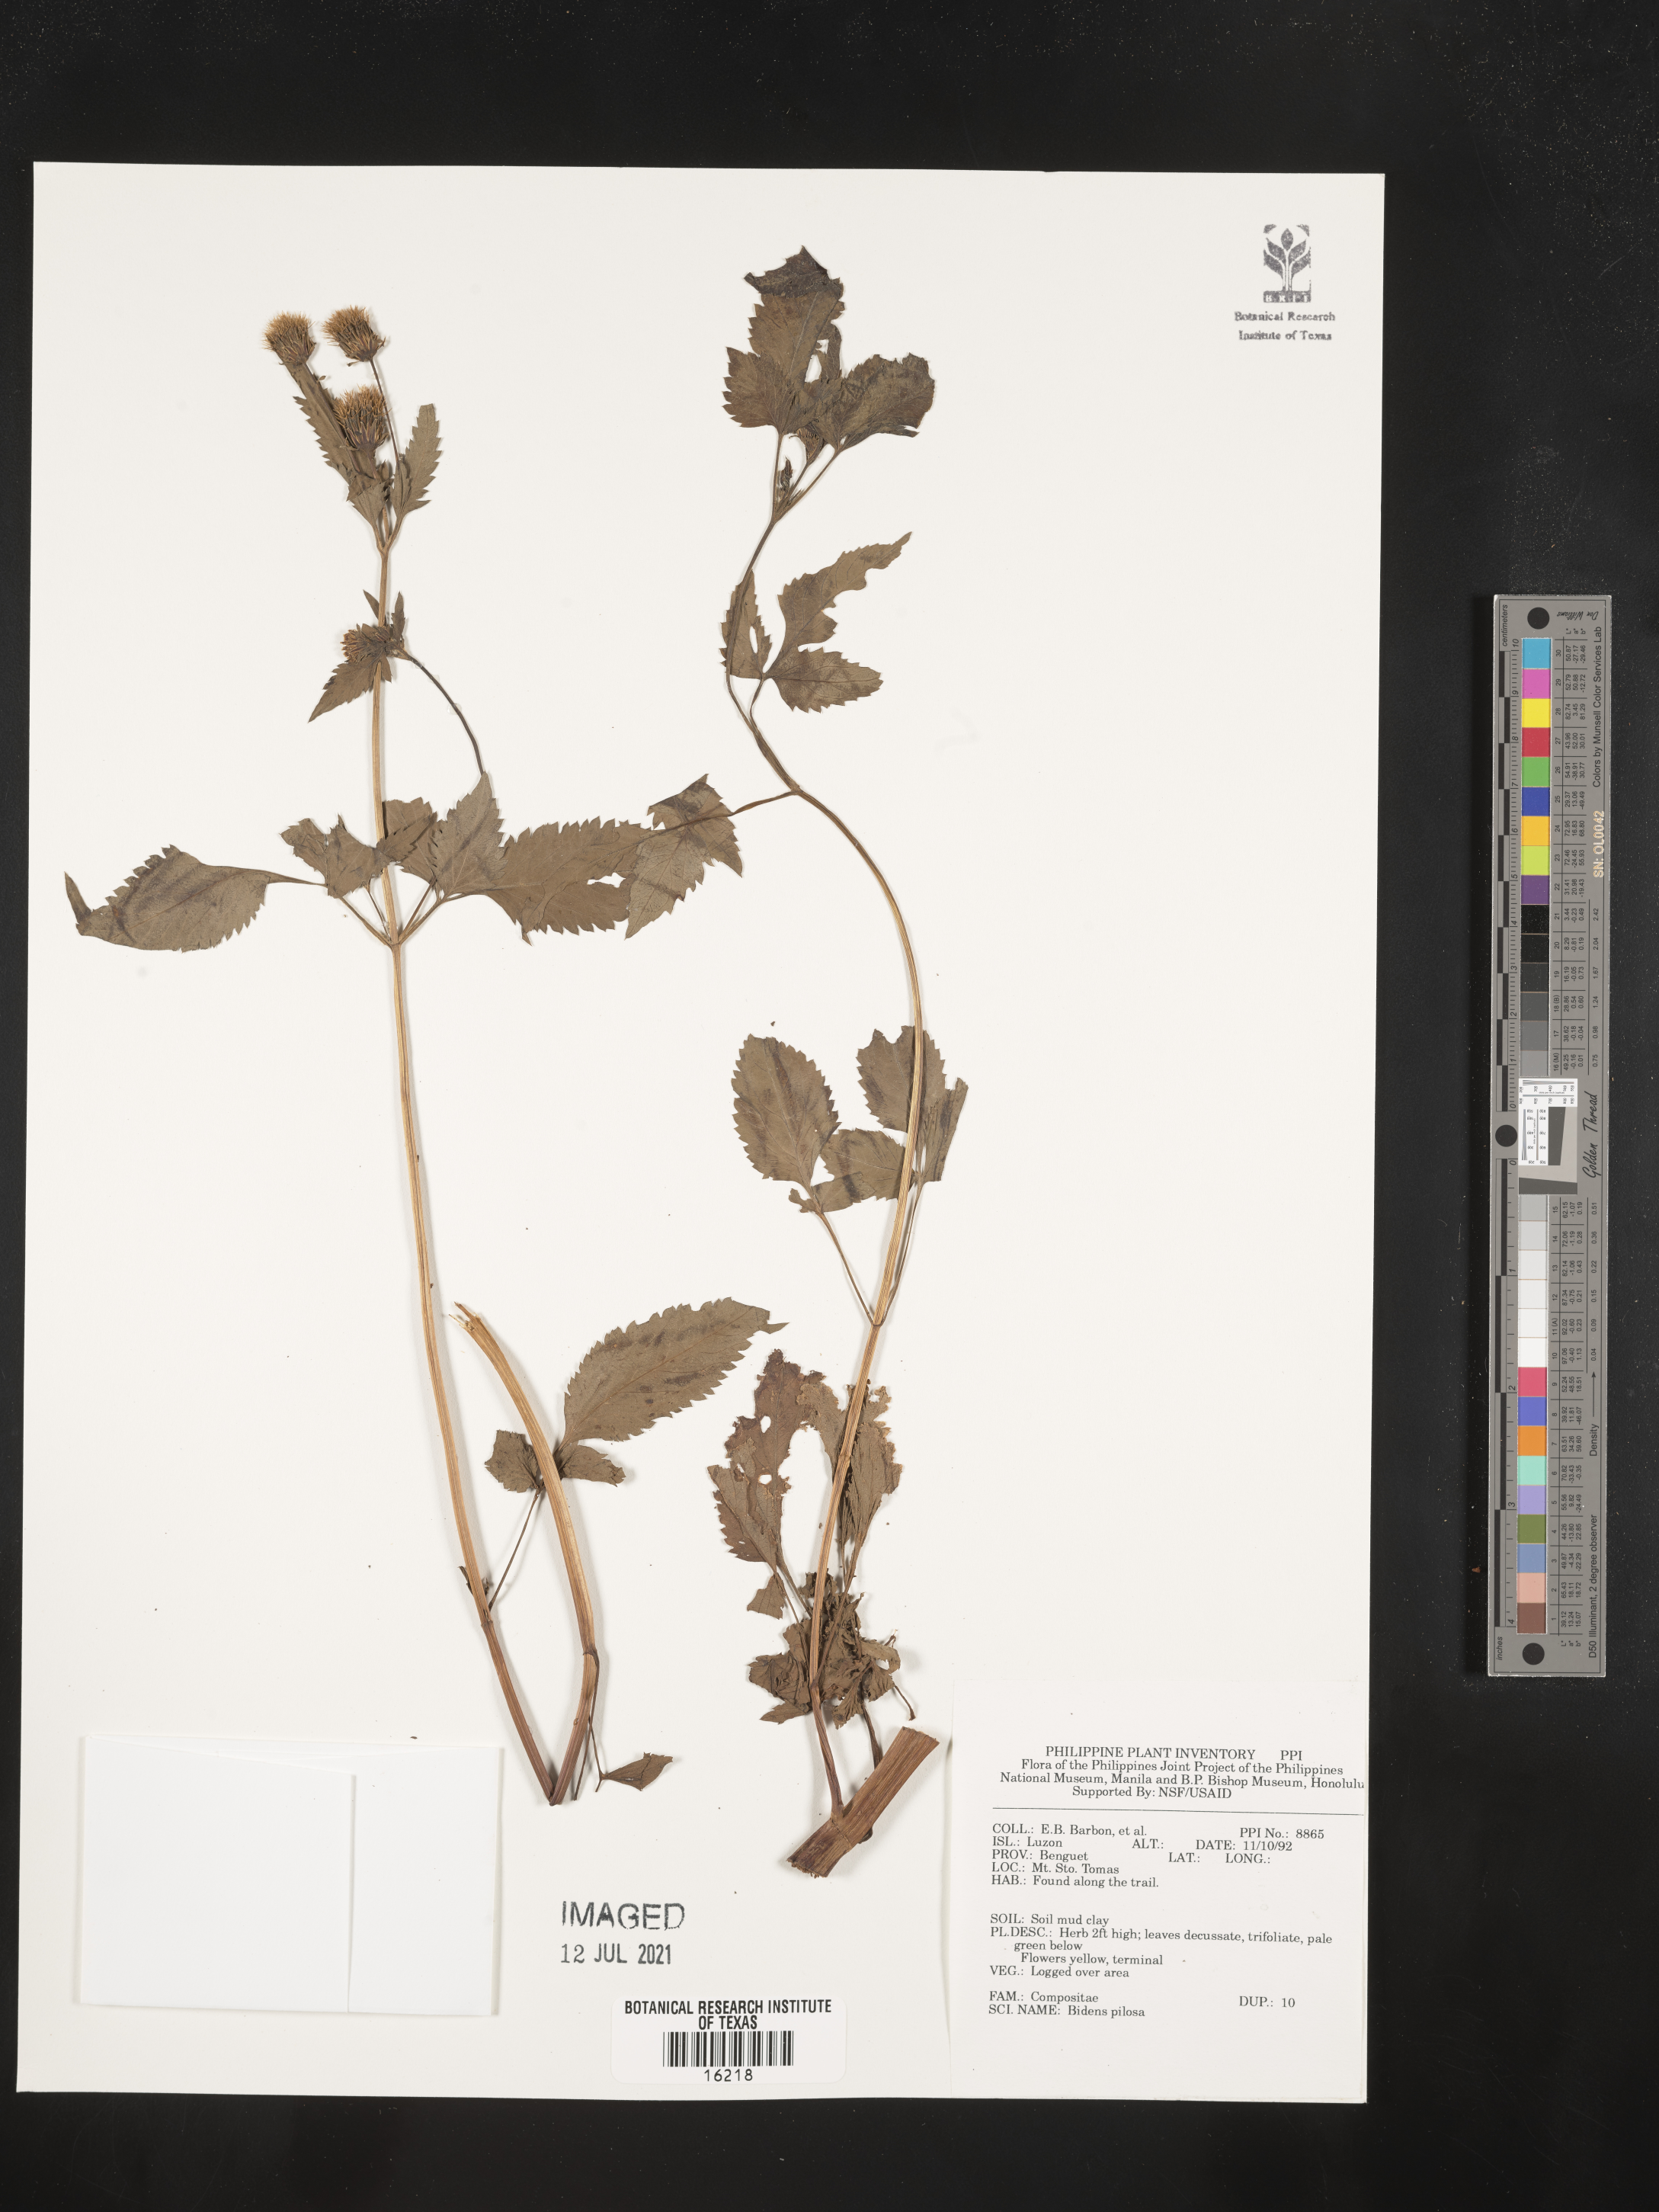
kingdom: Plantae
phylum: Tracheophyta
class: Magnoliopsida
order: Asterales
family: Asteraceae
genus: Bidens
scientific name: Bidens pilosa
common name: Black-jack
